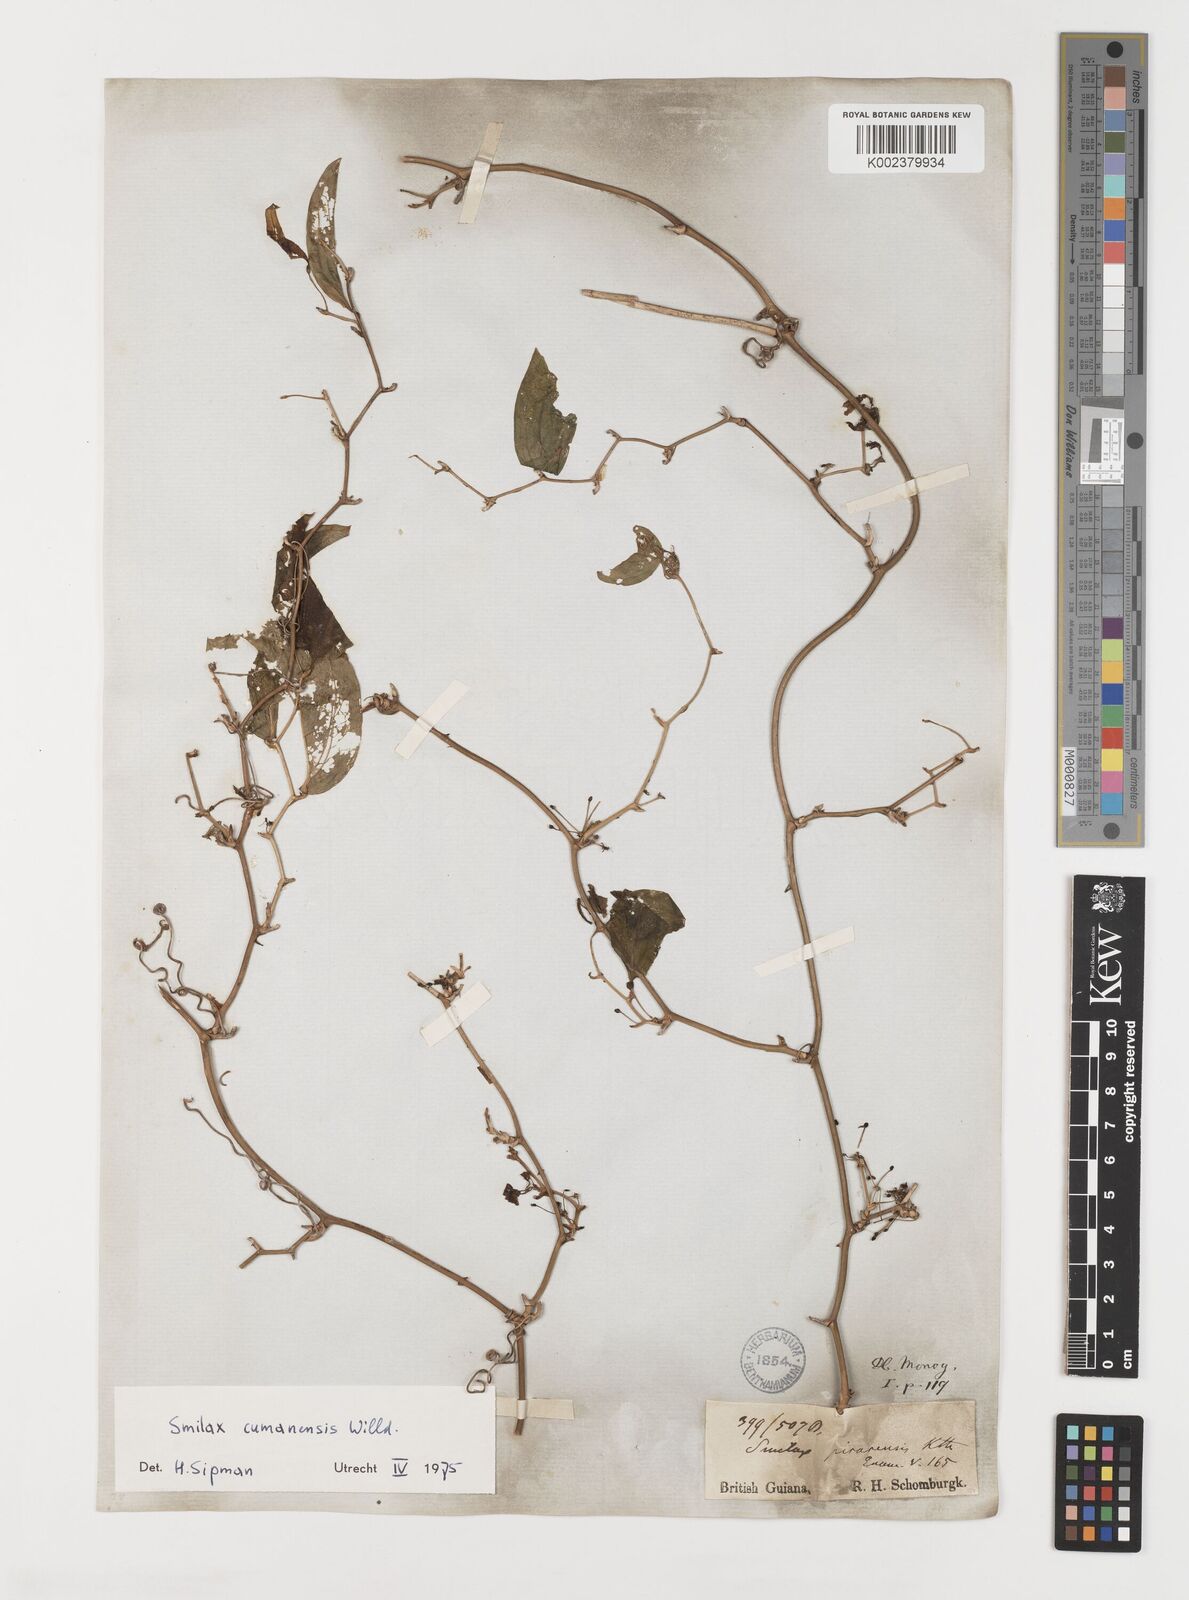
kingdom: Plantae
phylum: Tracheophyta
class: Liliopsida
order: Liliales
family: Smilacaceae
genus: Smilax
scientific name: Smilax oblongata
